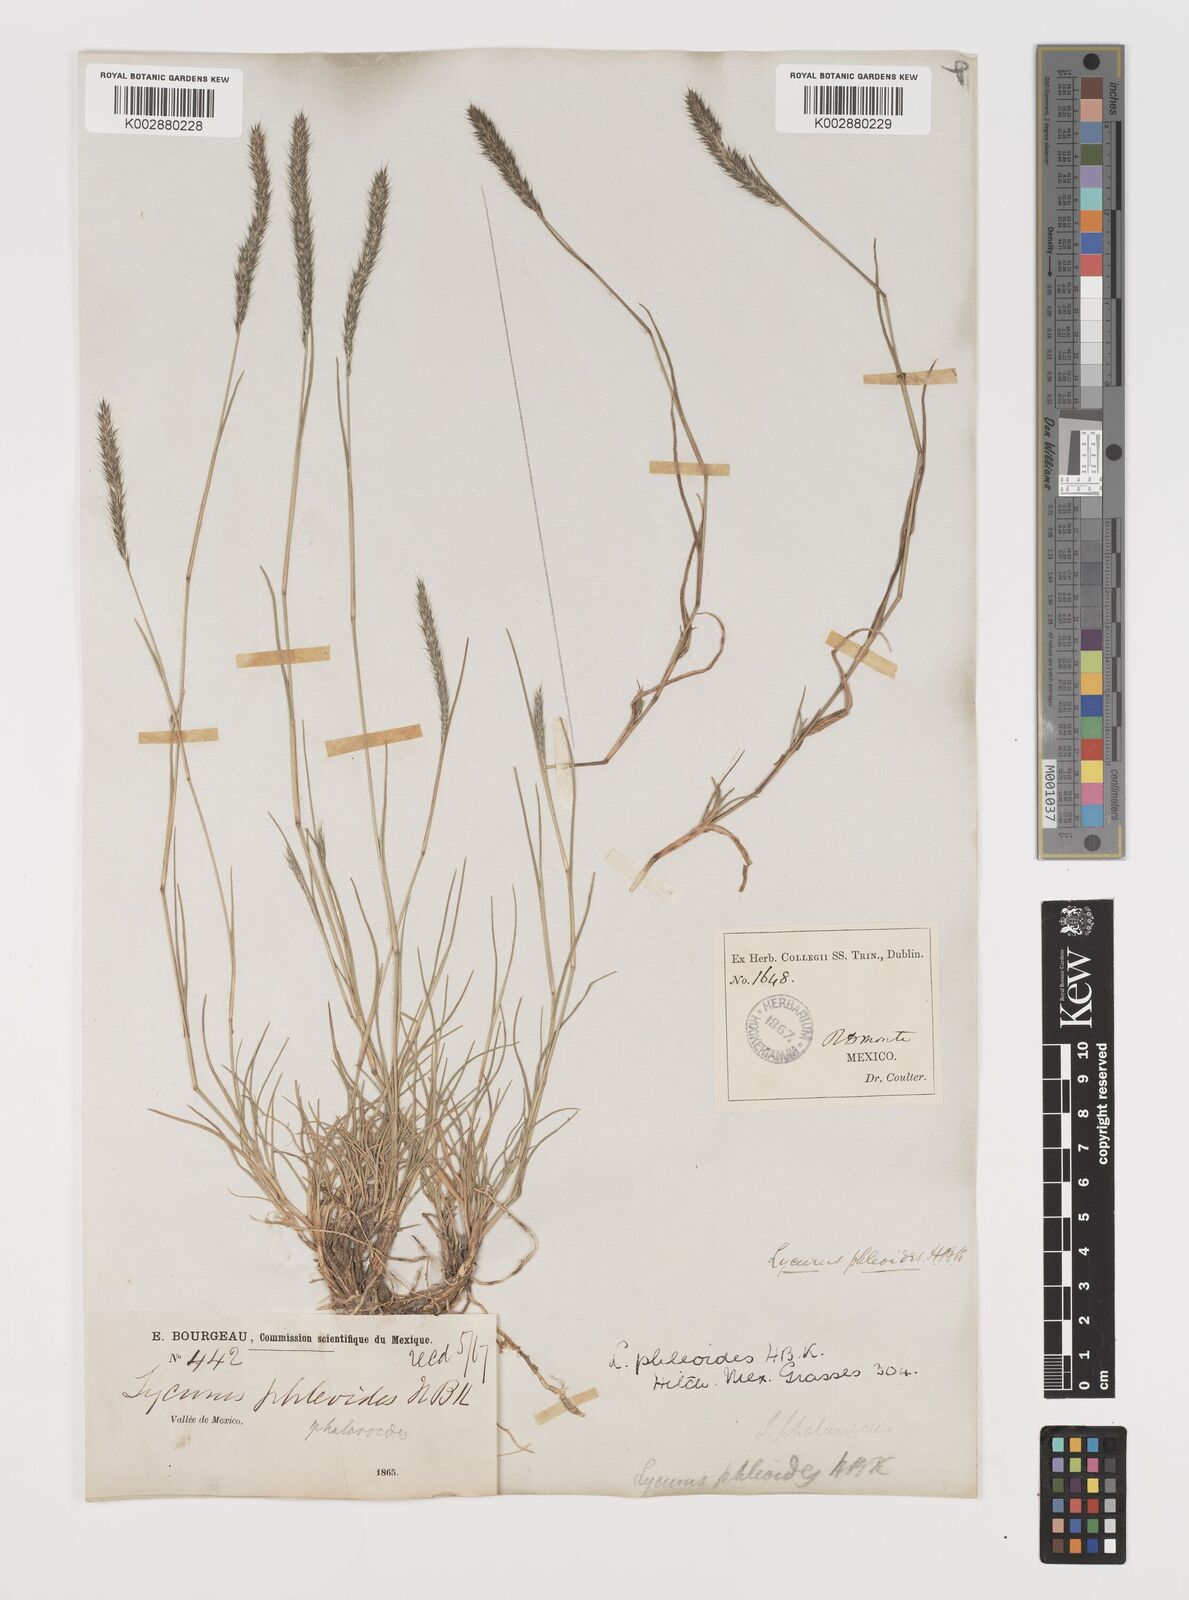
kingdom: Plantae
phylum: Tracheophyta
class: Liliopsida
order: Poales
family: Poaceae
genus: Muhlenbergia
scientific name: Muhlenbergia phleoides
